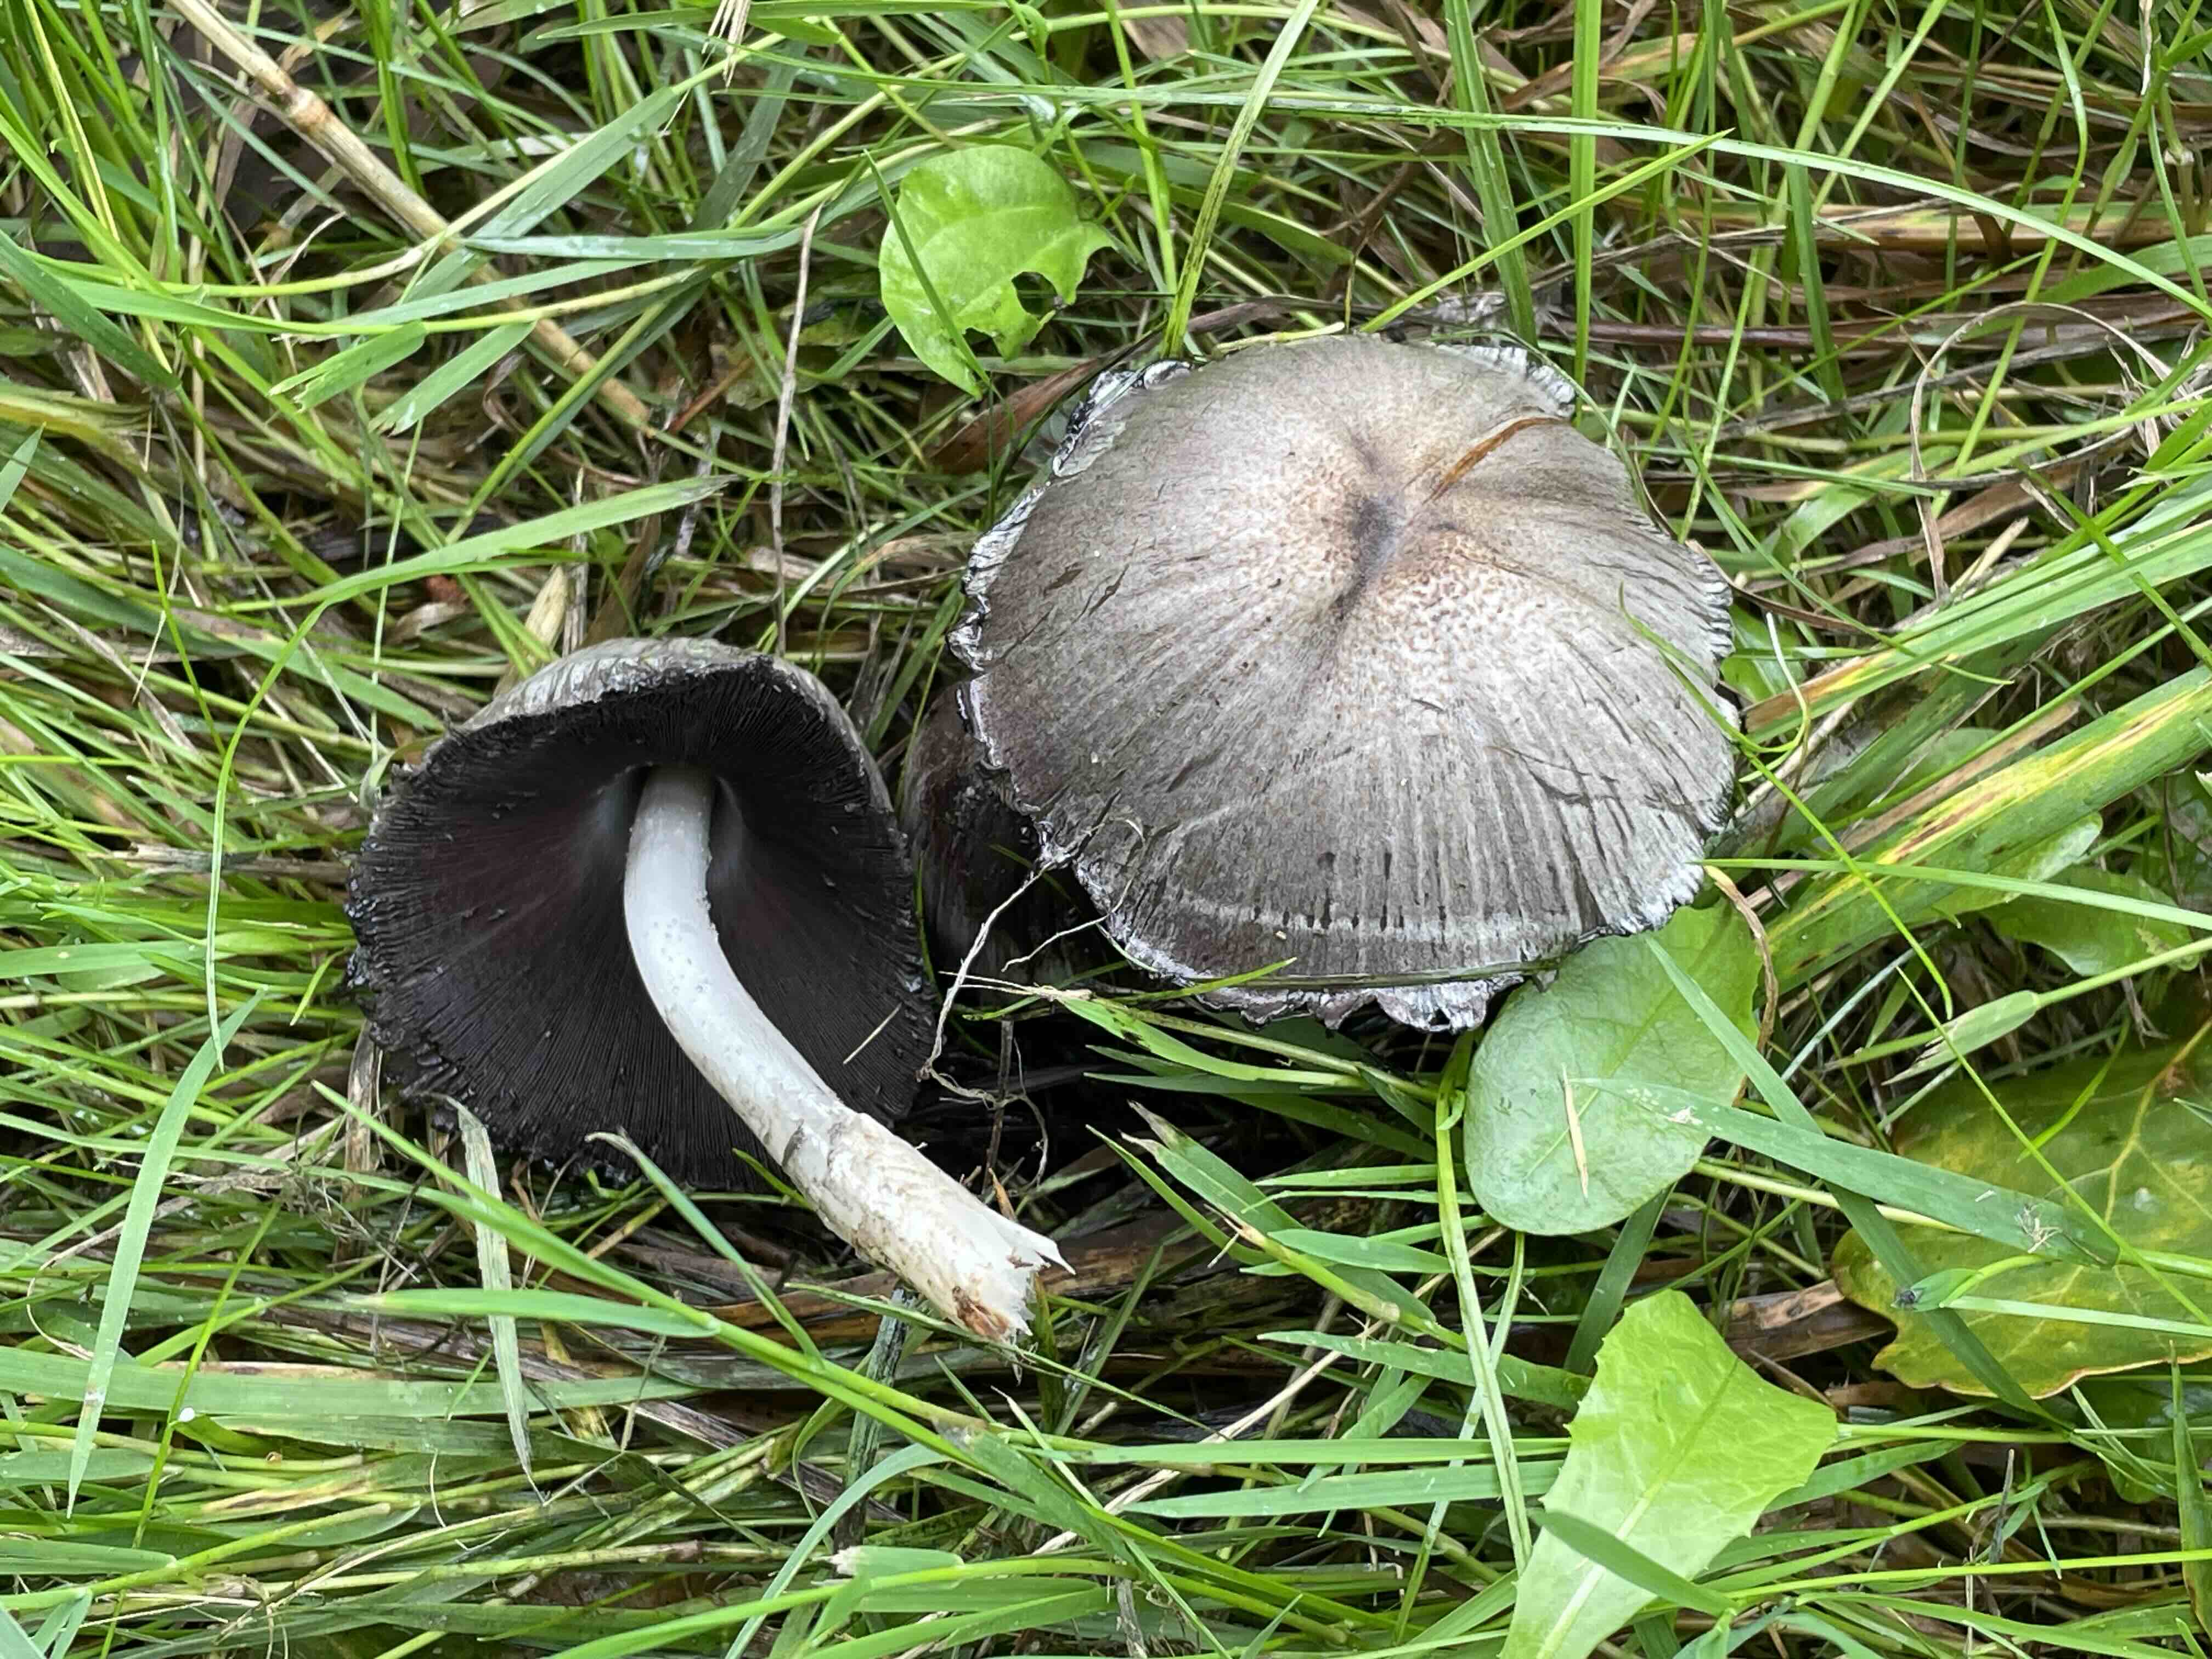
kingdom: Fungi
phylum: Basidiomycota
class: Agaricomycetes
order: Agaricales
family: Psathyrellaceae
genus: Coprinopsis
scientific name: Coprinopsis romagnesiana
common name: brunskællet blækhat
